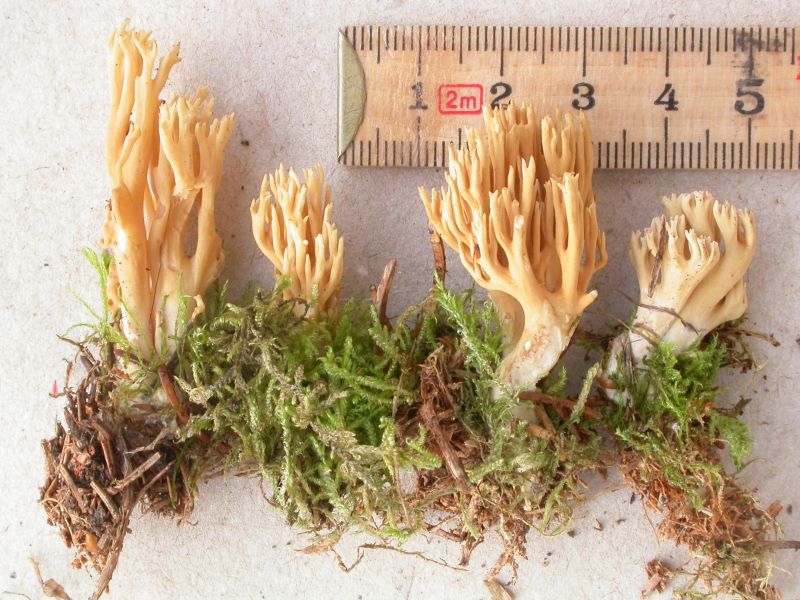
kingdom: Fungi
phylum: Basidiomycota
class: Agaricomycetes
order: Gomphales
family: Gomphaceae
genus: Phaeoclavulina
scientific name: Phaeoclavulina eumorpha
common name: gran-koralsvamp
